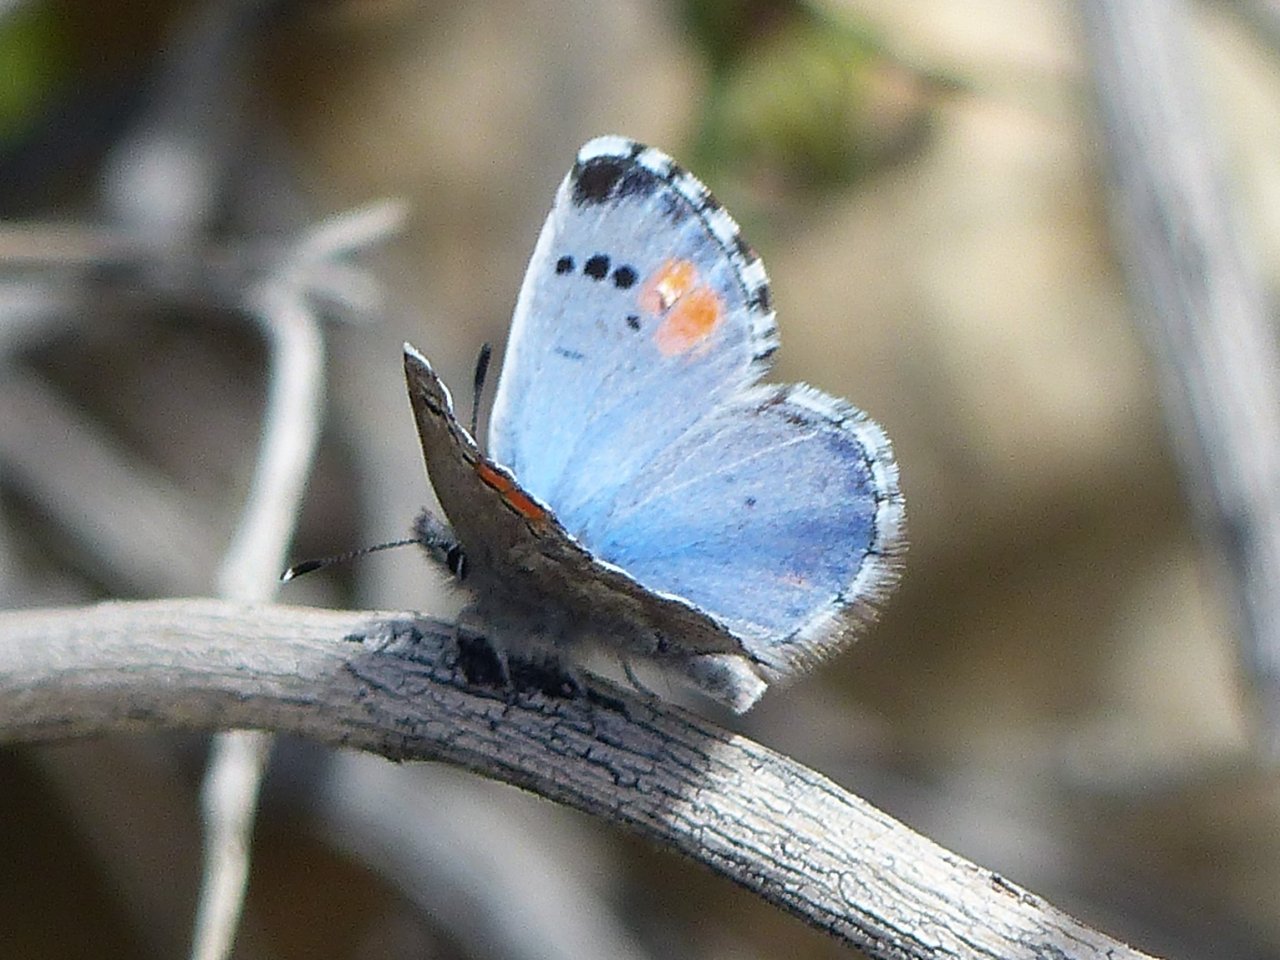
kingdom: Animalia
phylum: Arthropoda
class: Insecta
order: Lepidoptera
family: Lycaenidae
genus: Philotes
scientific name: Philotes sonorensis
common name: Sonoran Blue
